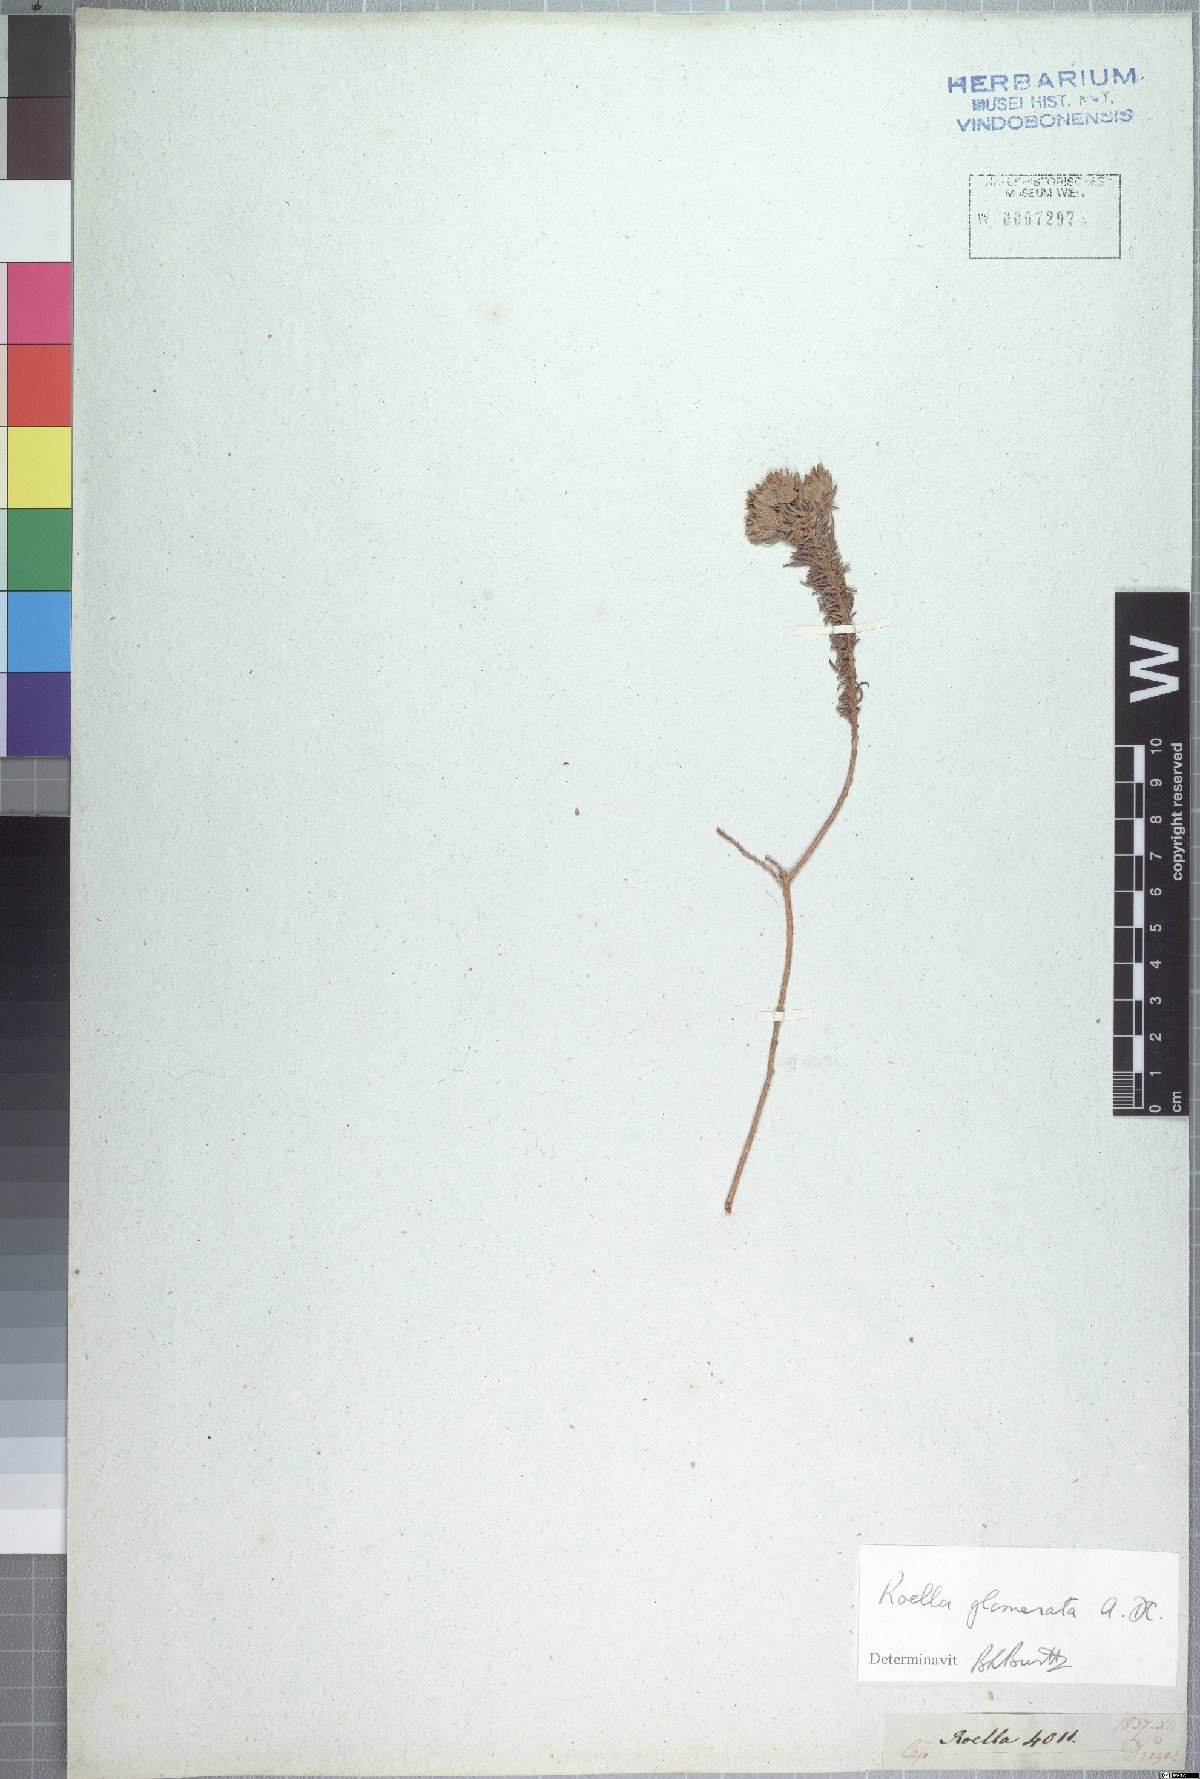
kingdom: Plantae
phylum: Tracheophyta
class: Magnoliopsida
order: Asterales
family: Campanulaceae
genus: Roella
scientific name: Roella glomerata
